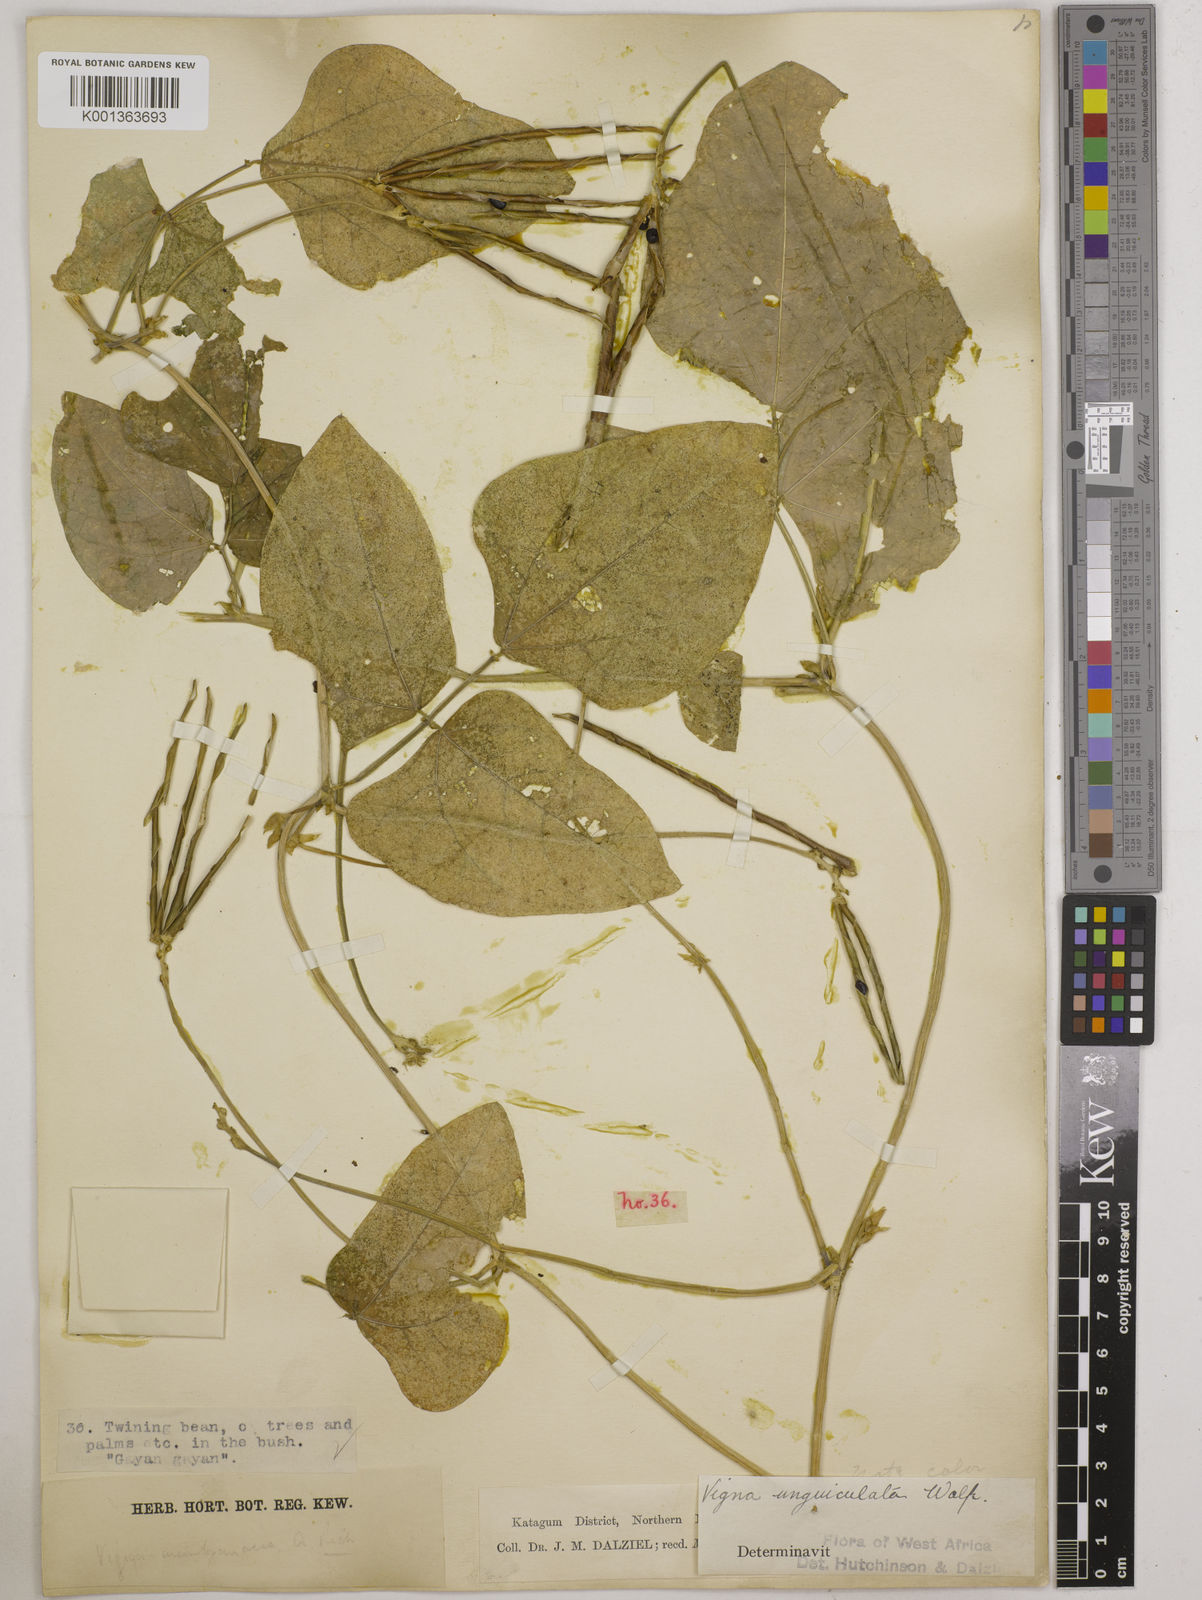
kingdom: Plantae
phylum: Tracheophyta
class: Magnoliopsida
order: Fabales
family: Fabaceae
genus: Vigna
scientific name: Vigna unguiculata
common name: Cowpea
